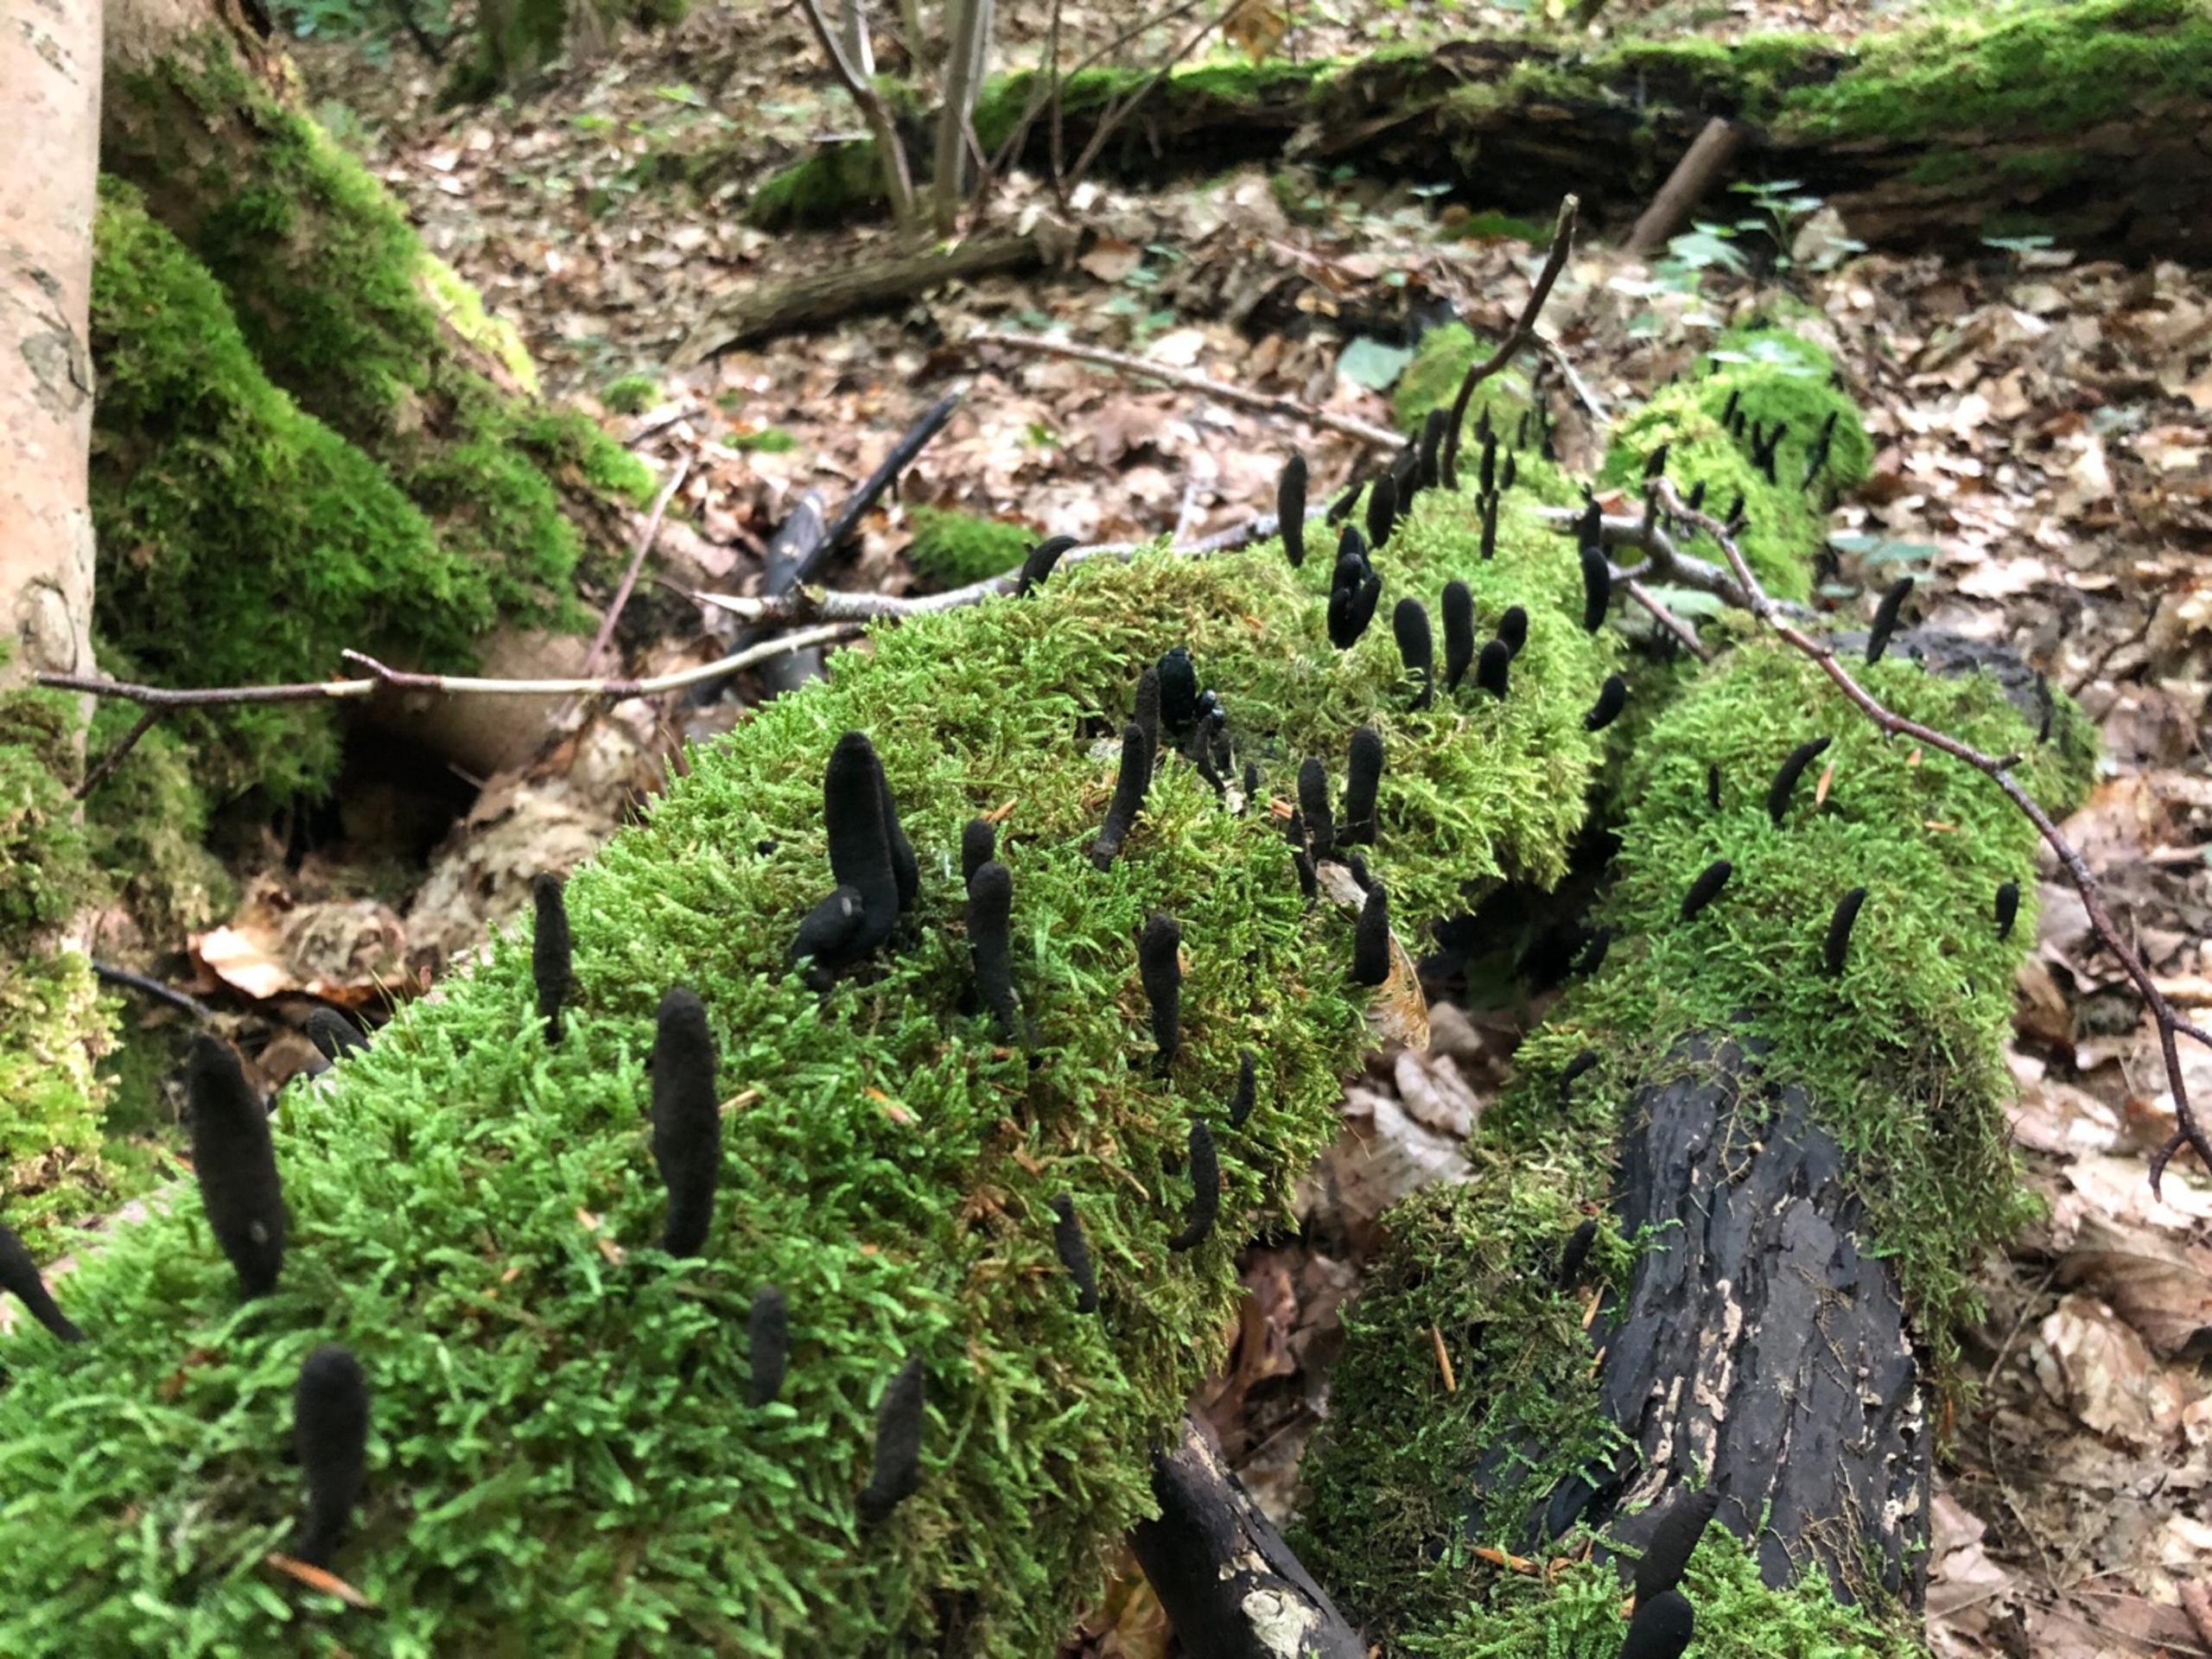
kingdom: Fungi
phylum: Ascomycota
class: Sordariomycetes
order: Xylariales
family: Xylariaceae
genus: Xylaria
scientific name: Xylaria longipes
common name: Slank stødsvamp
